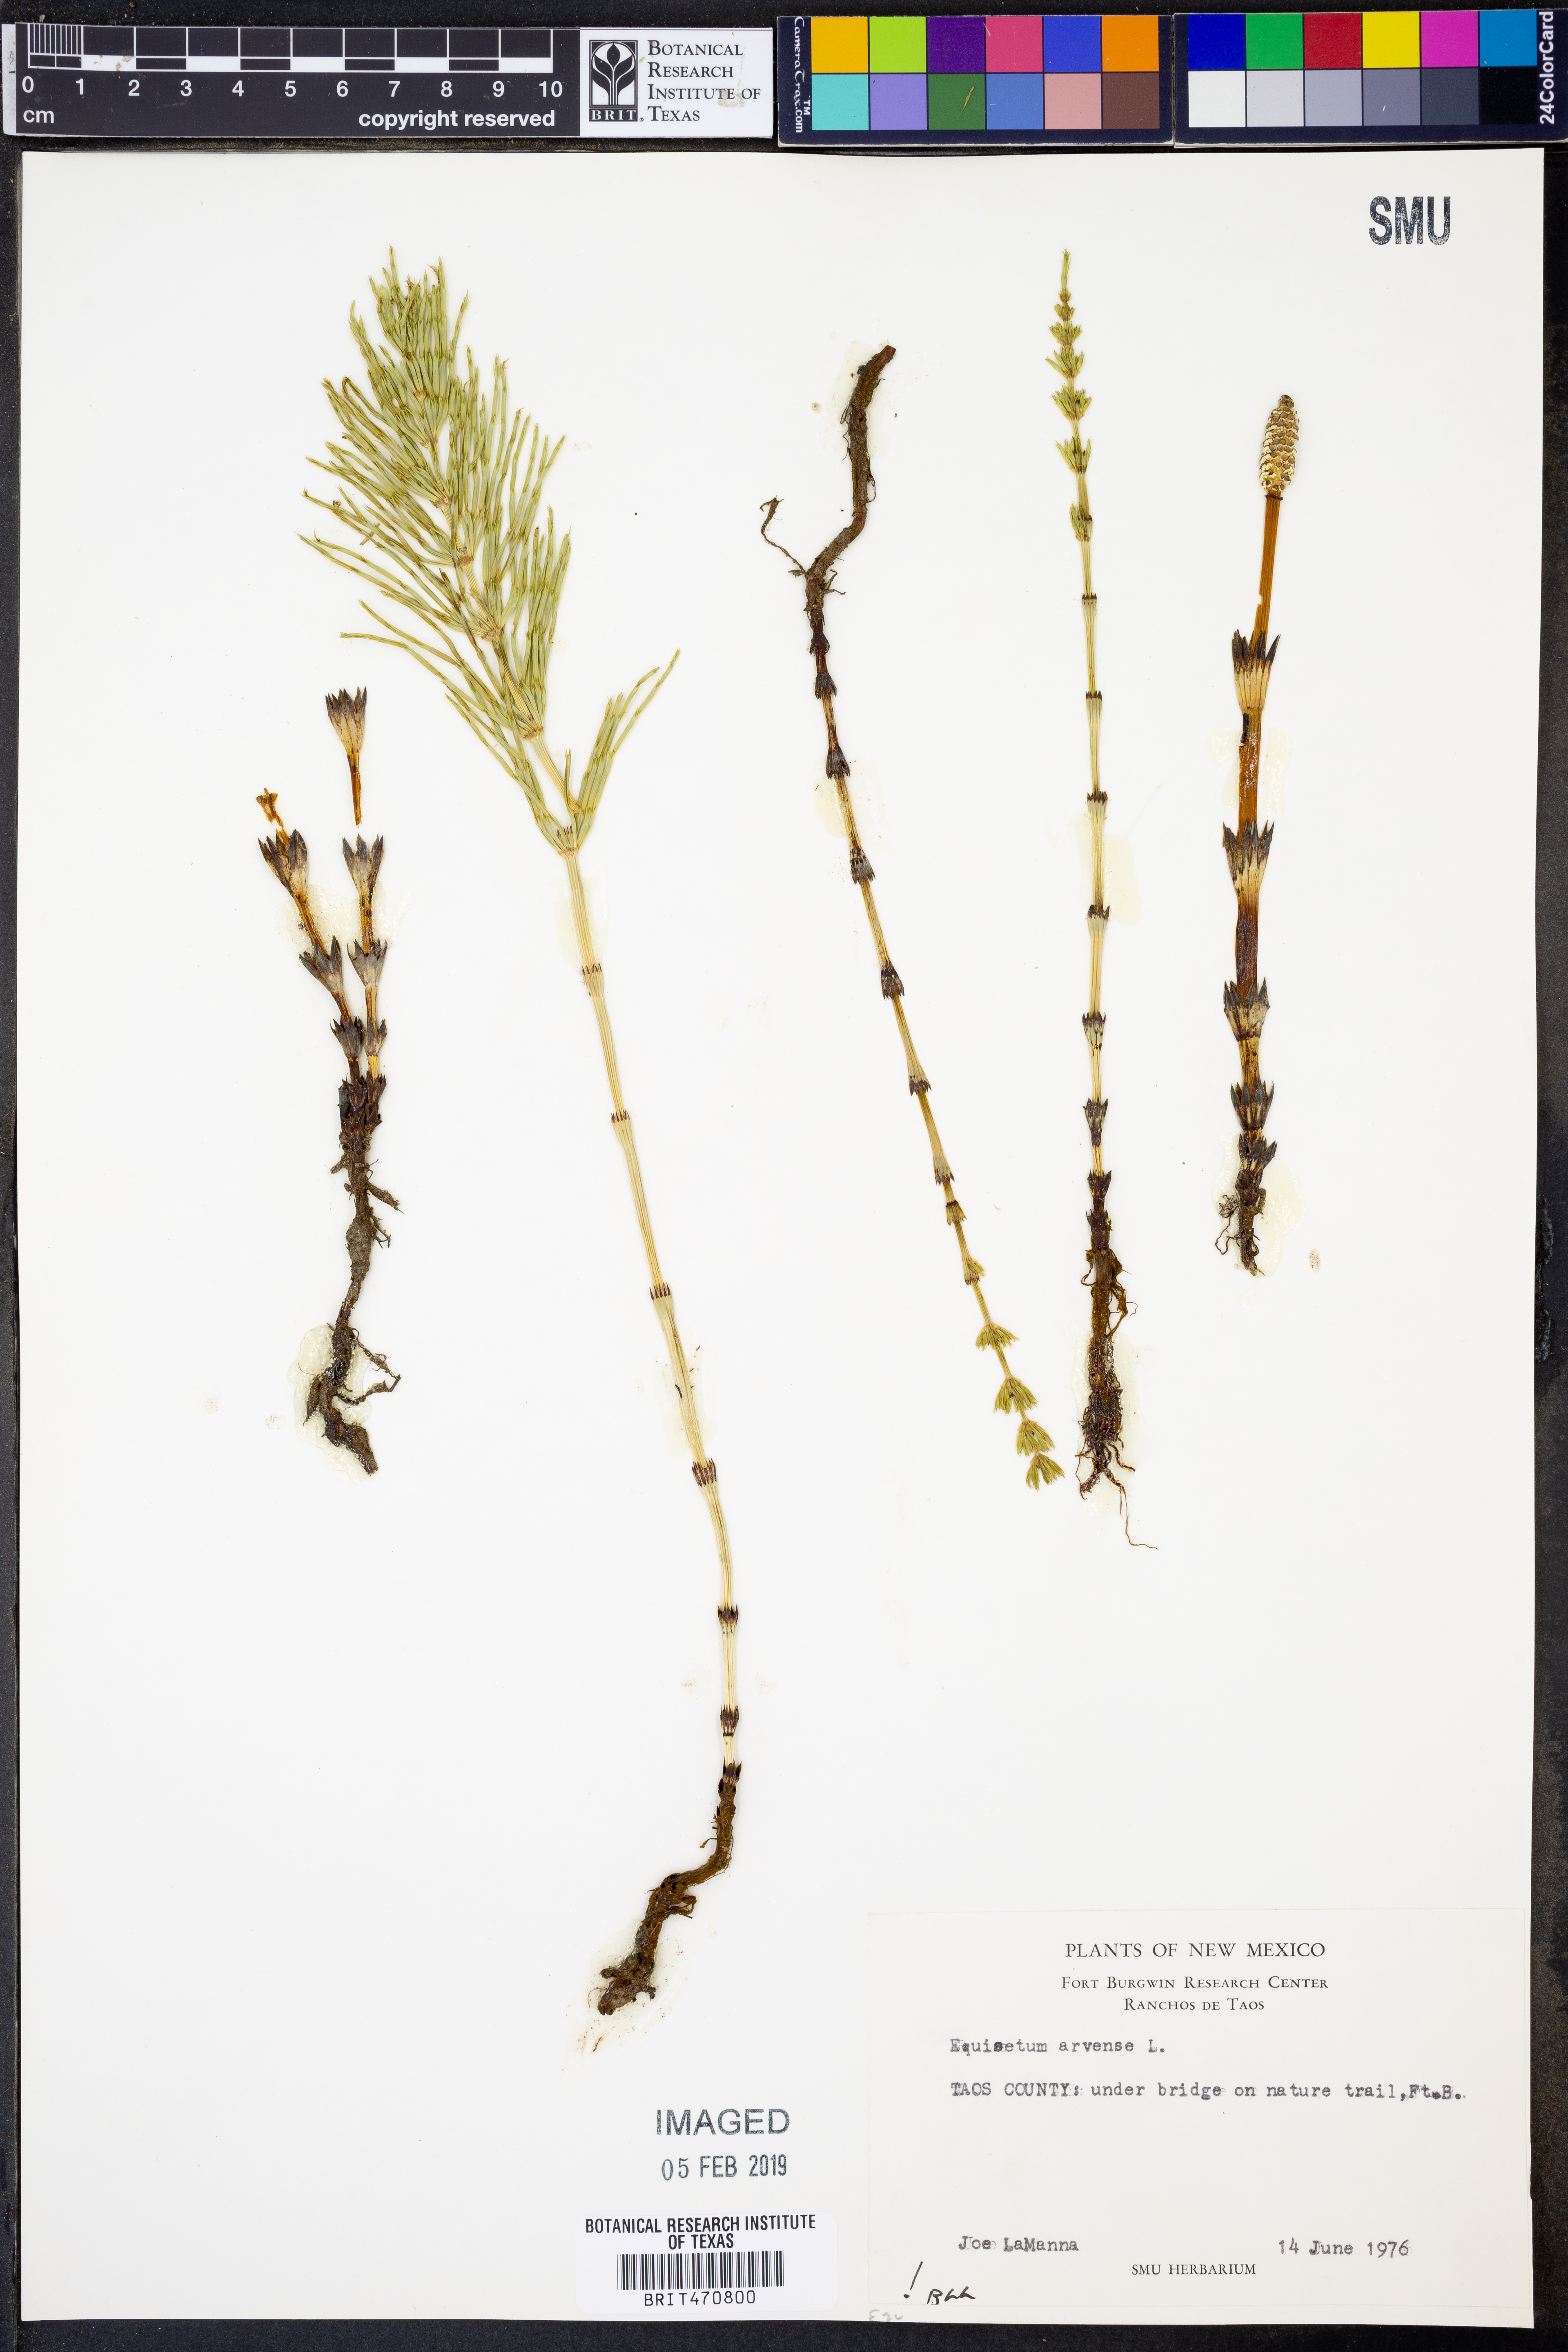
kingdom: Plantae
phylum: Tracheophyta
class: Polypodiopsida
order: Equisetales
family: Equisetaceae
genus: Equisetum
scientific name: Equisetum arvense
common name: Field horsetail
